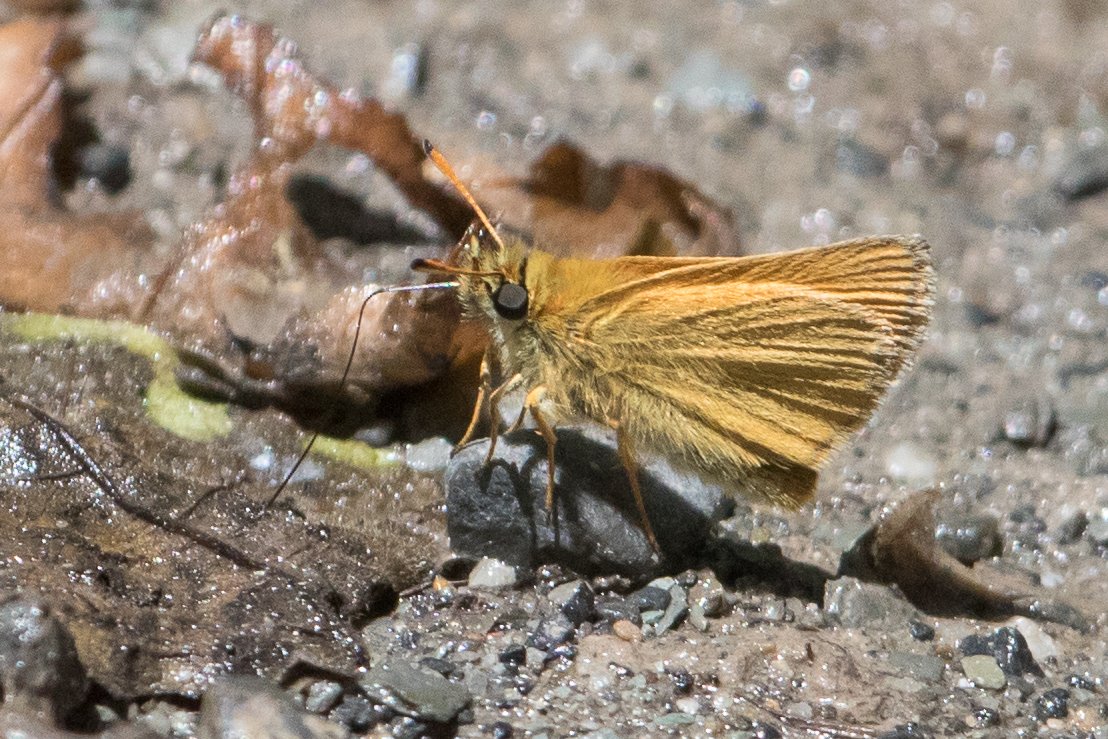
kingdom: Animalia
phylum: Arthropoda
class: Insecta
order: Lepidoptera
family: Hesperiidae
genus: Thymelicus
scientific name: Thymelicus lineola
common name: European Skipper
